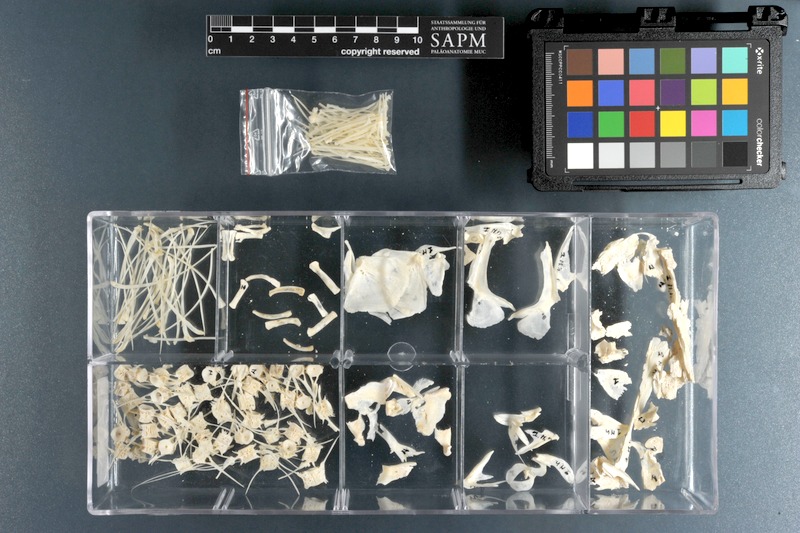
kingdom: Animalia
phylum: Chordata
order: Osteoglossiformes
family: Mormyridae
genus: Mormyrus
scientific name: Mormyrus hasselquistii
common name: Elephant snout
